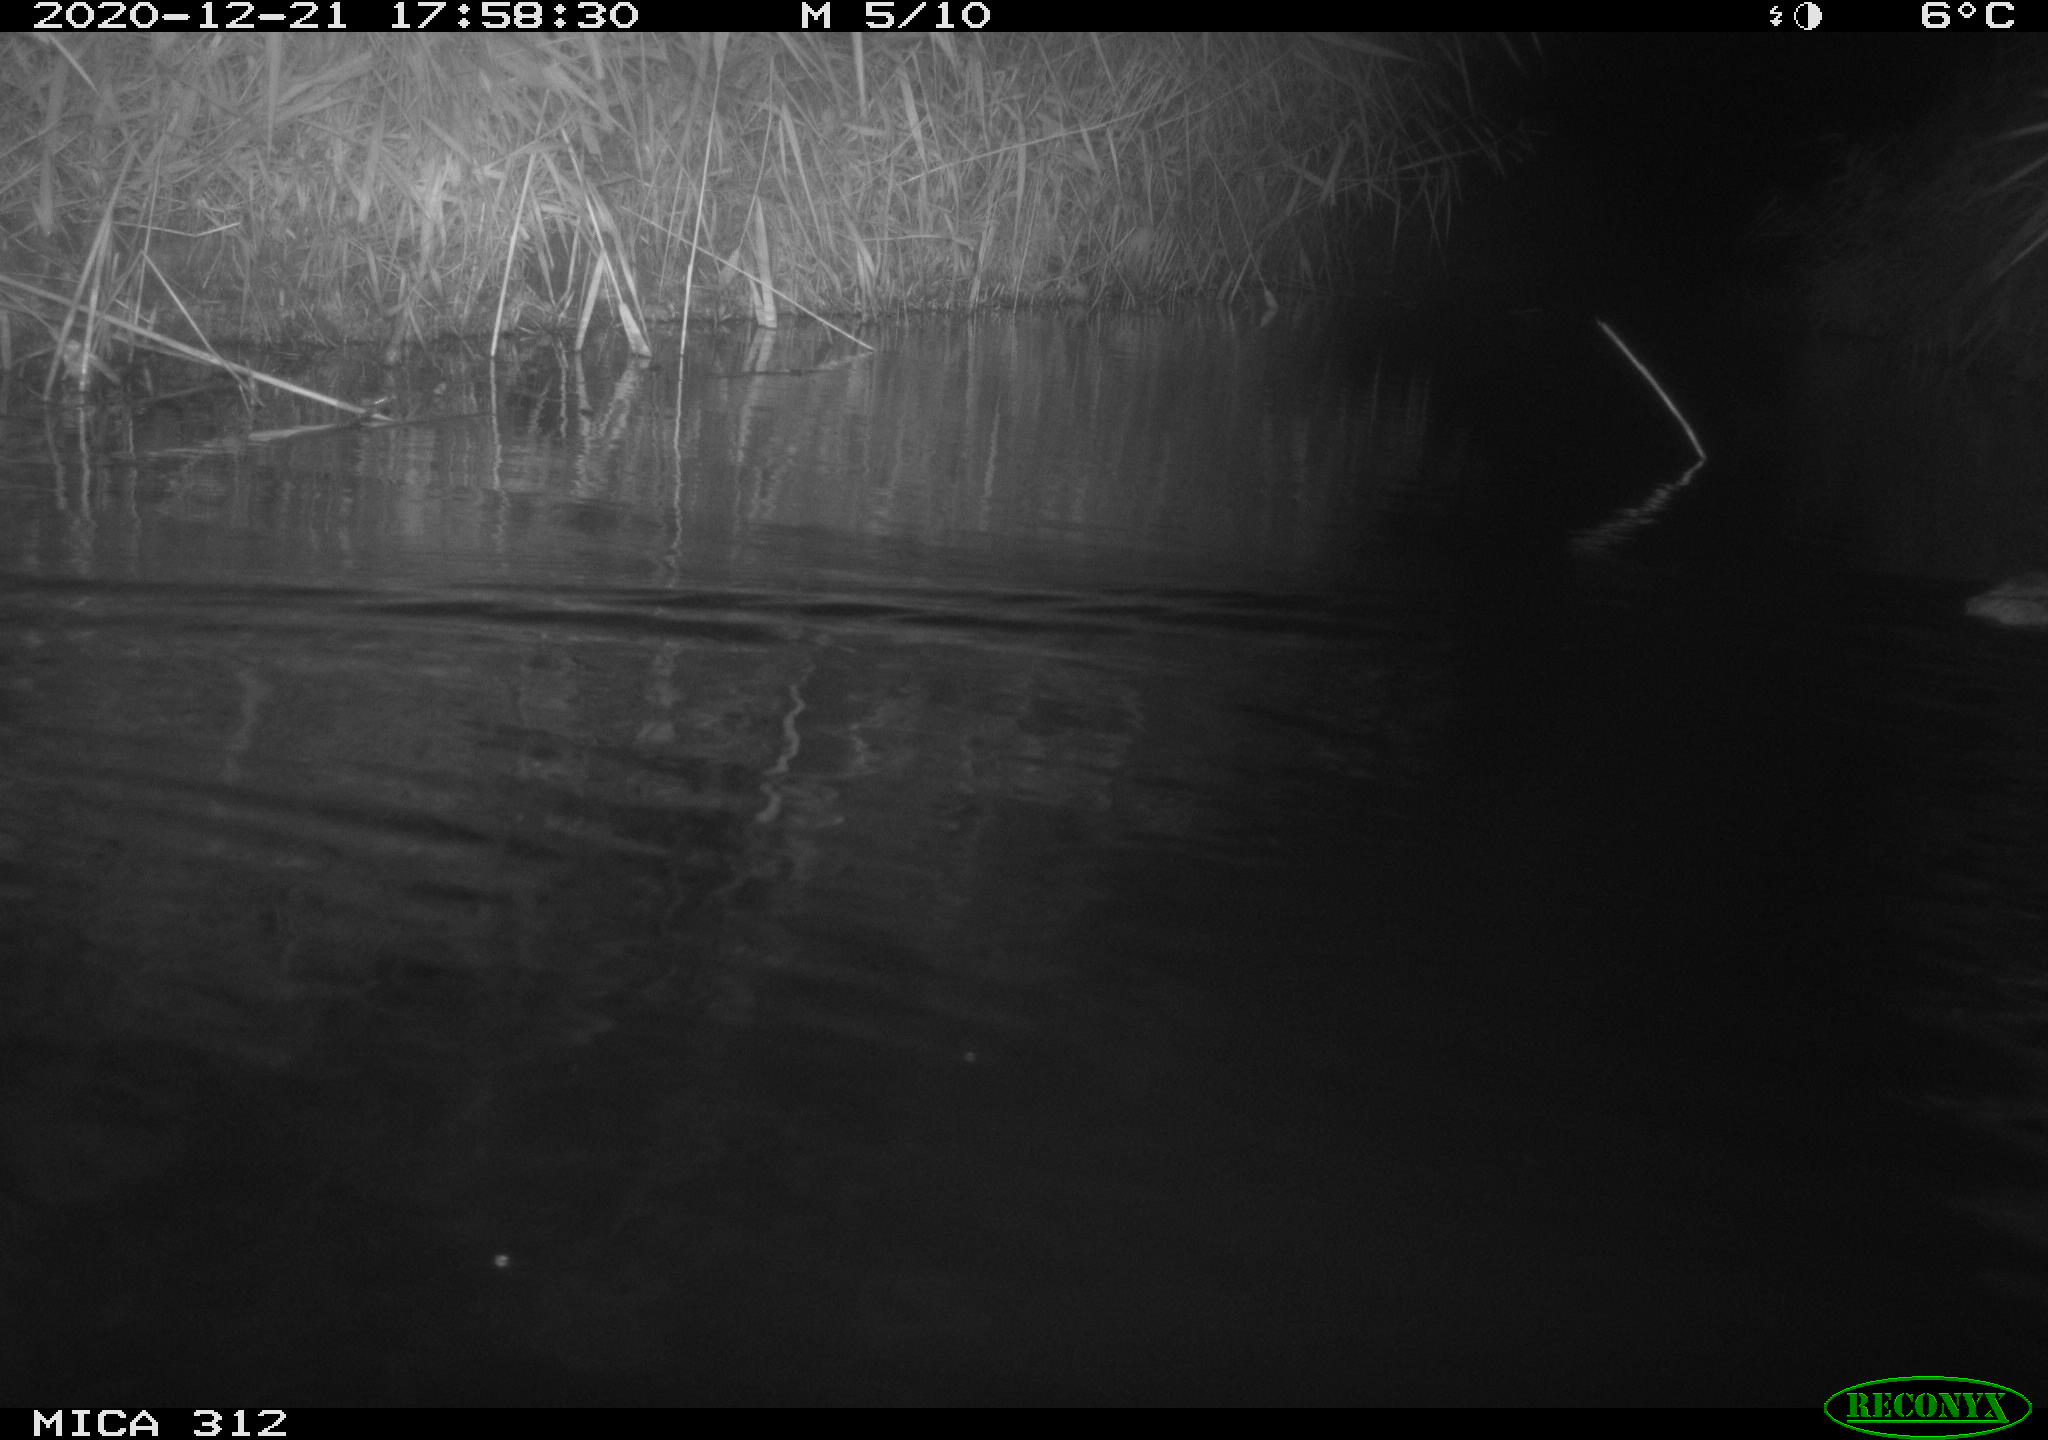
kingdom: Animalia
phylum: Chordata
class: Mammalia
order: Rodentia
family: Cricetidae
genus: Ondatra
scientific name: Ondatra zibethicus
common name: Muskrat
